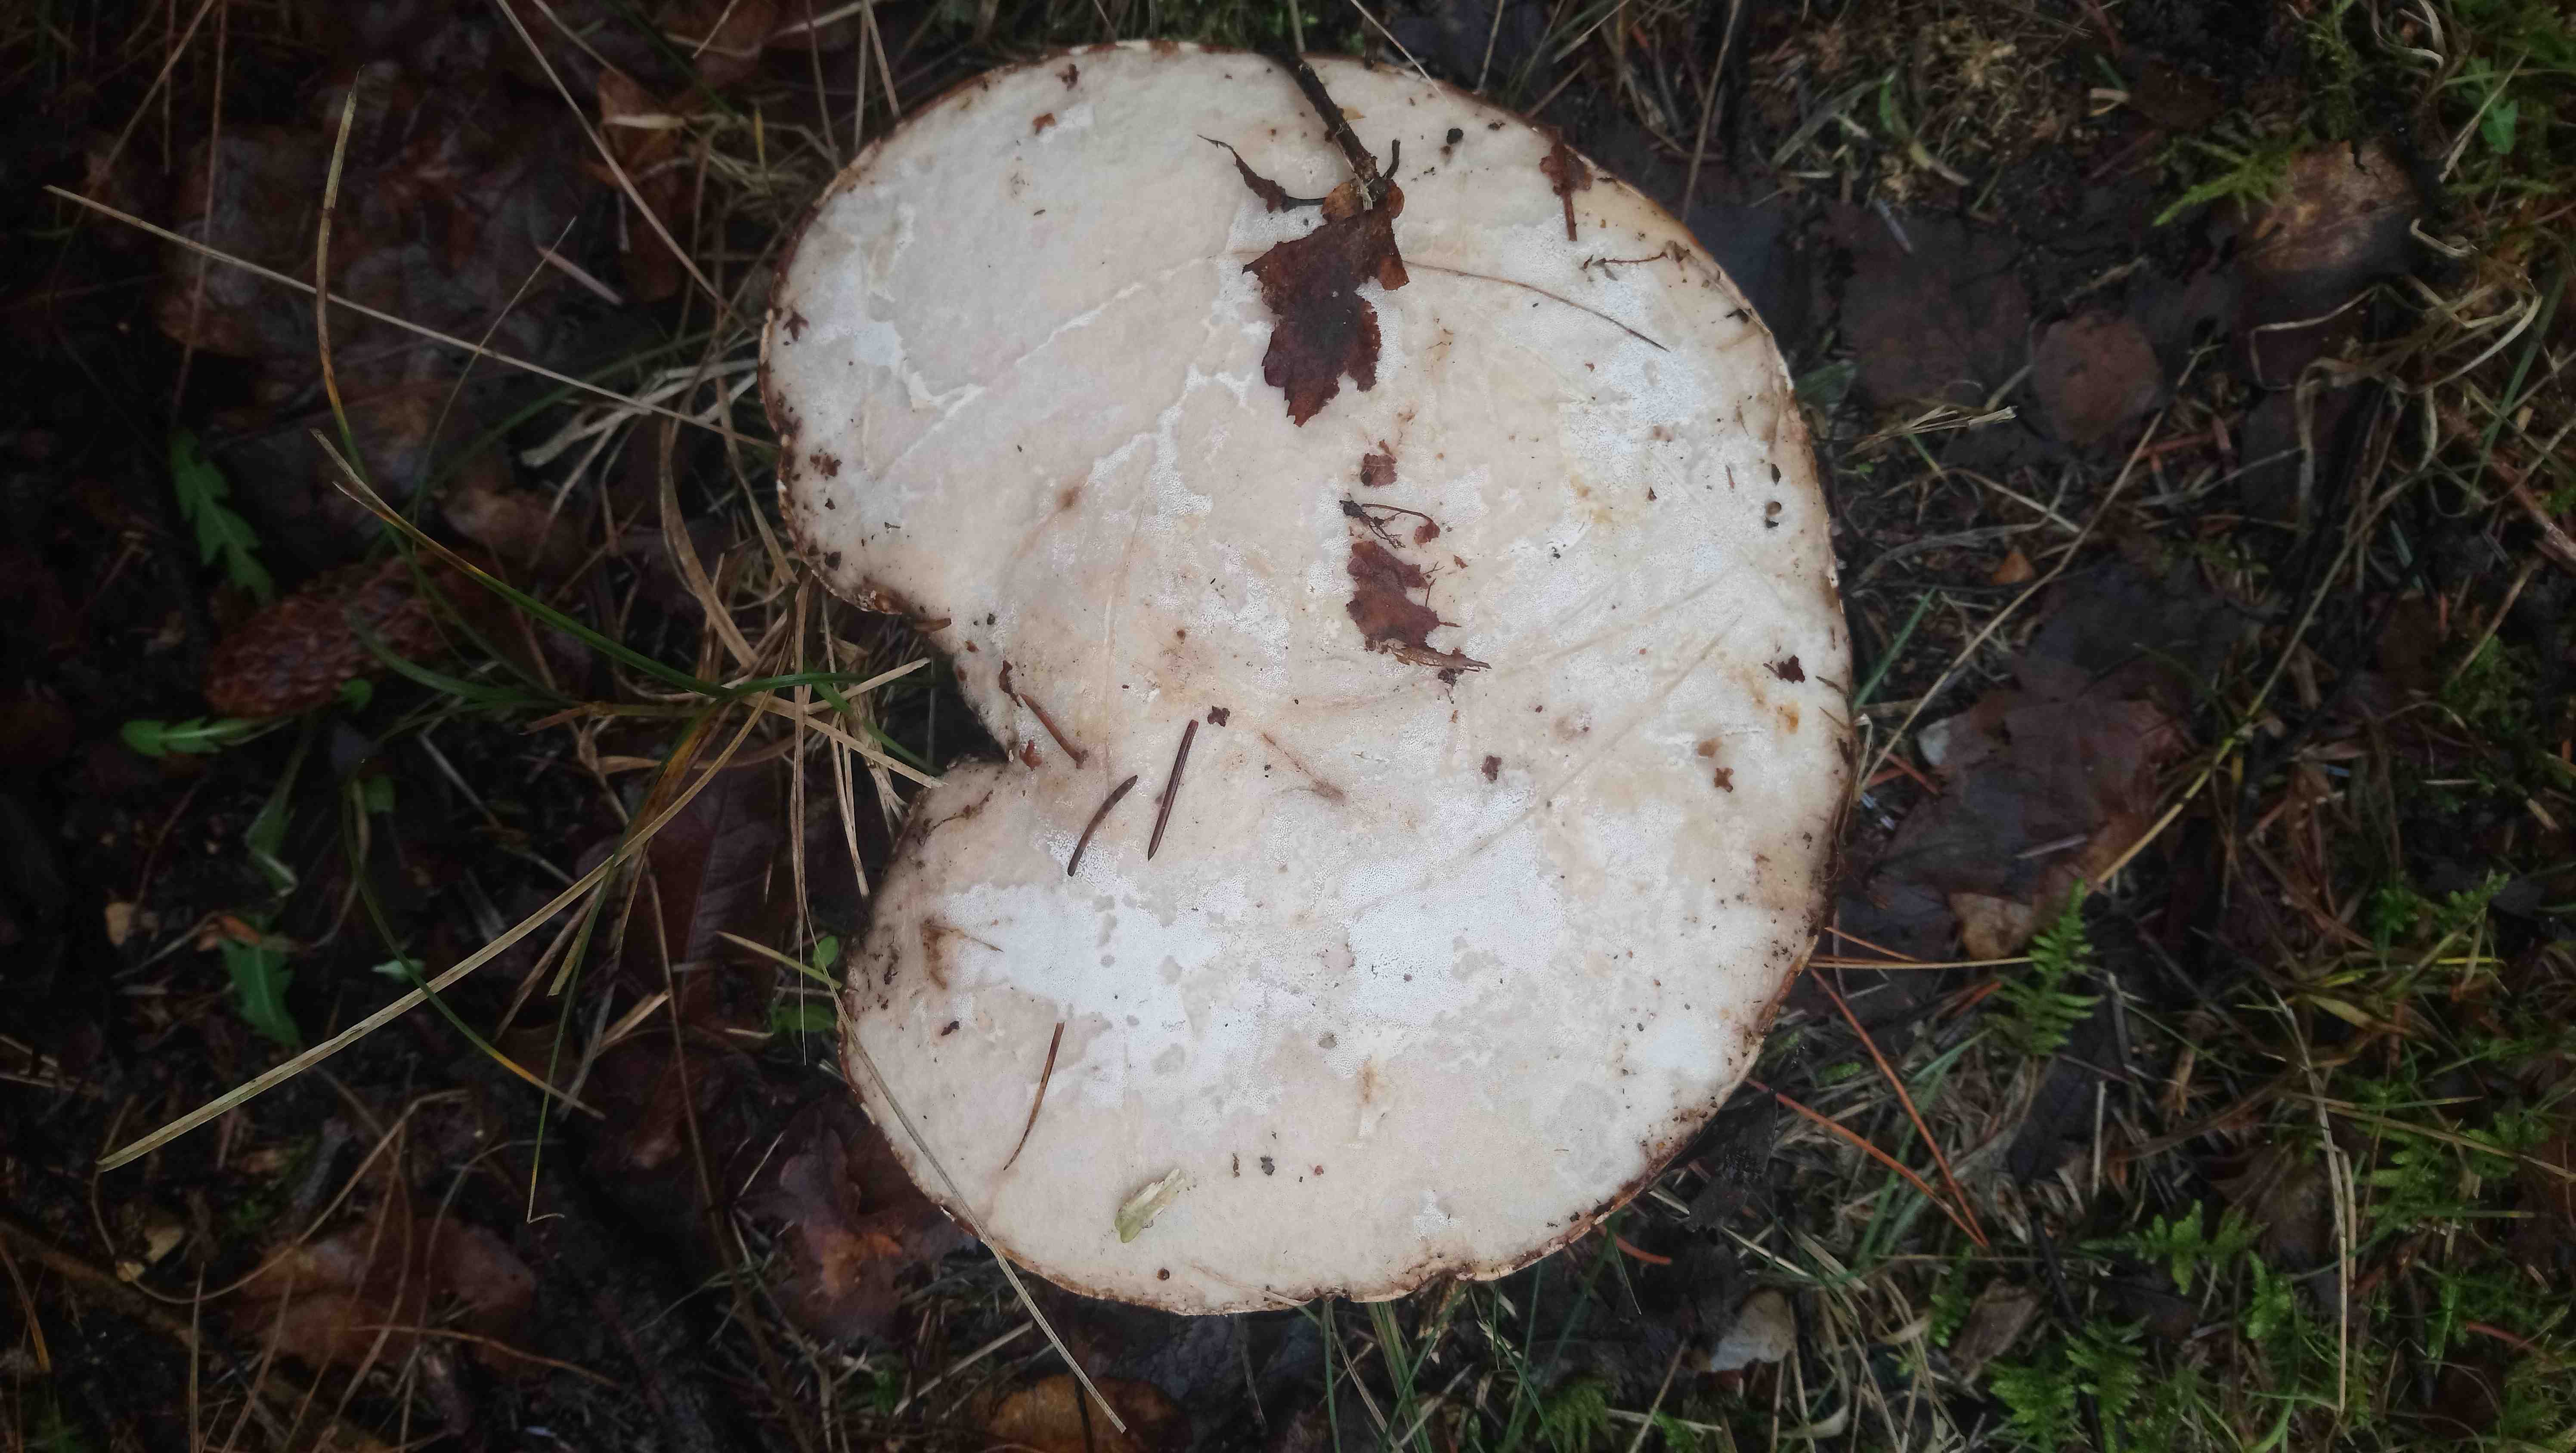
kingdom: Fungi
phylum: Basidiomycota
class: Agaricomycetes
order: Polyporales
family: Fomitopsidaceae
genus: Fomitopsis
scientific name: Fomitopsis betulina
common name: birkeporesvamp
